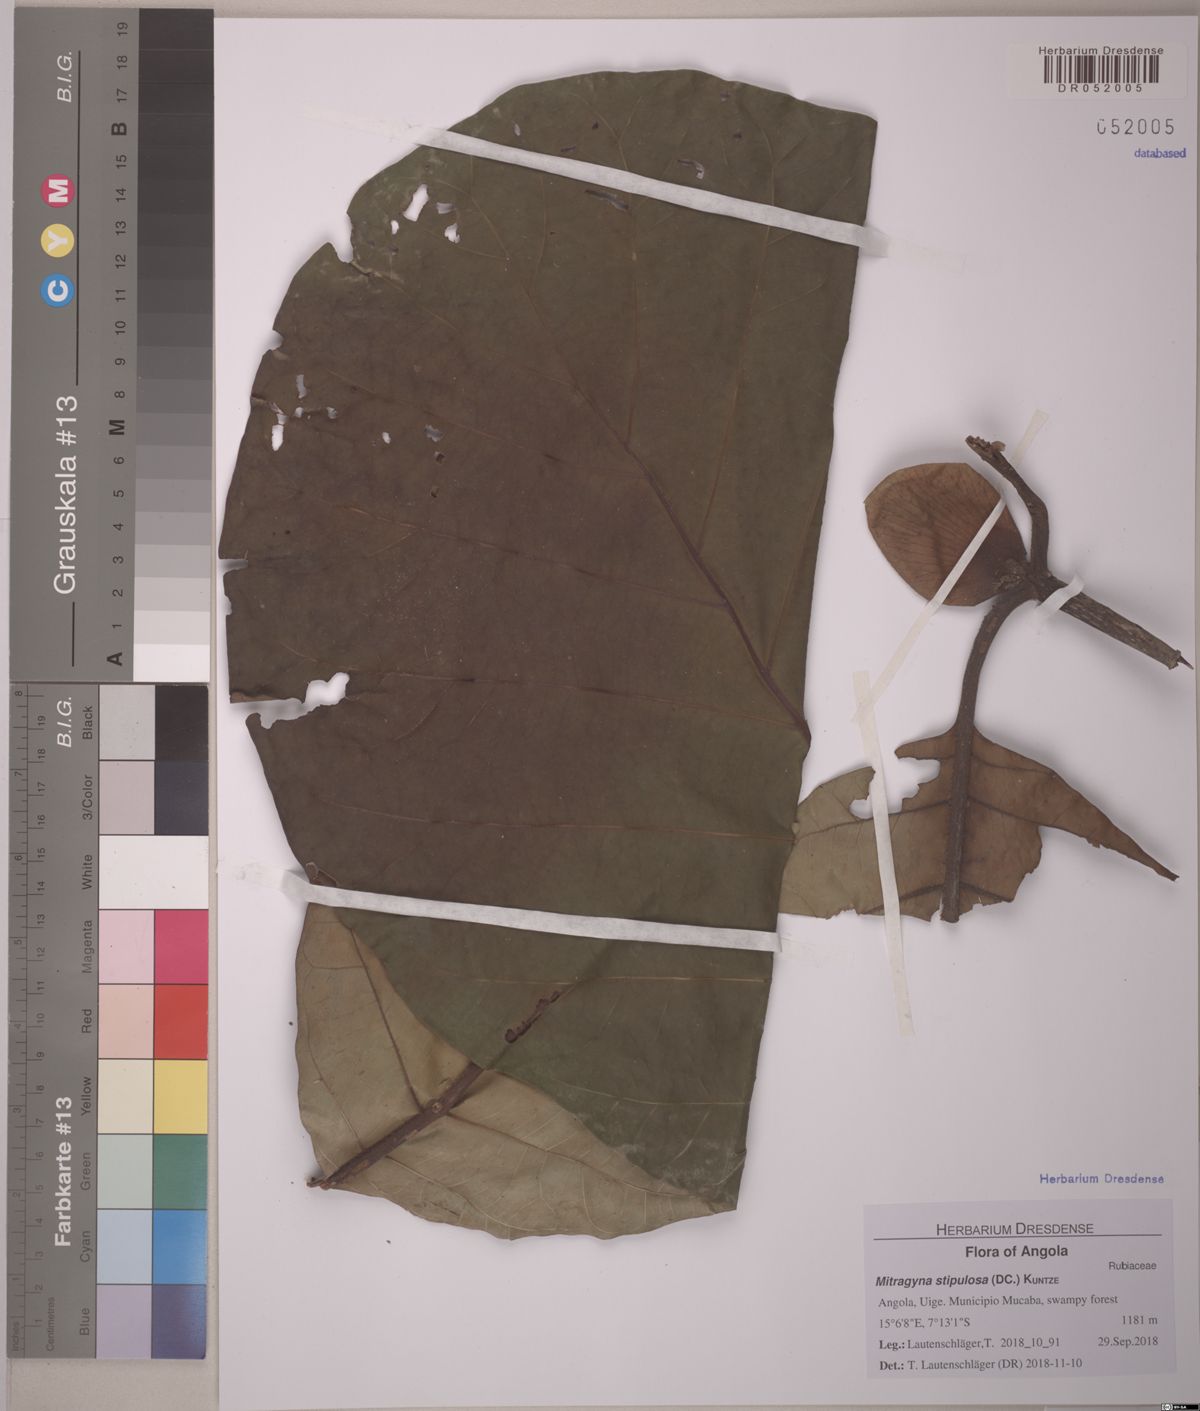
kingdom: Plantae
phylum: Tracheophyta
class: Magnoliopsida
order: Gentianales
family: Rubiaceae
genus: Mitragyna
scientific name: Mitragyna stipulosa
